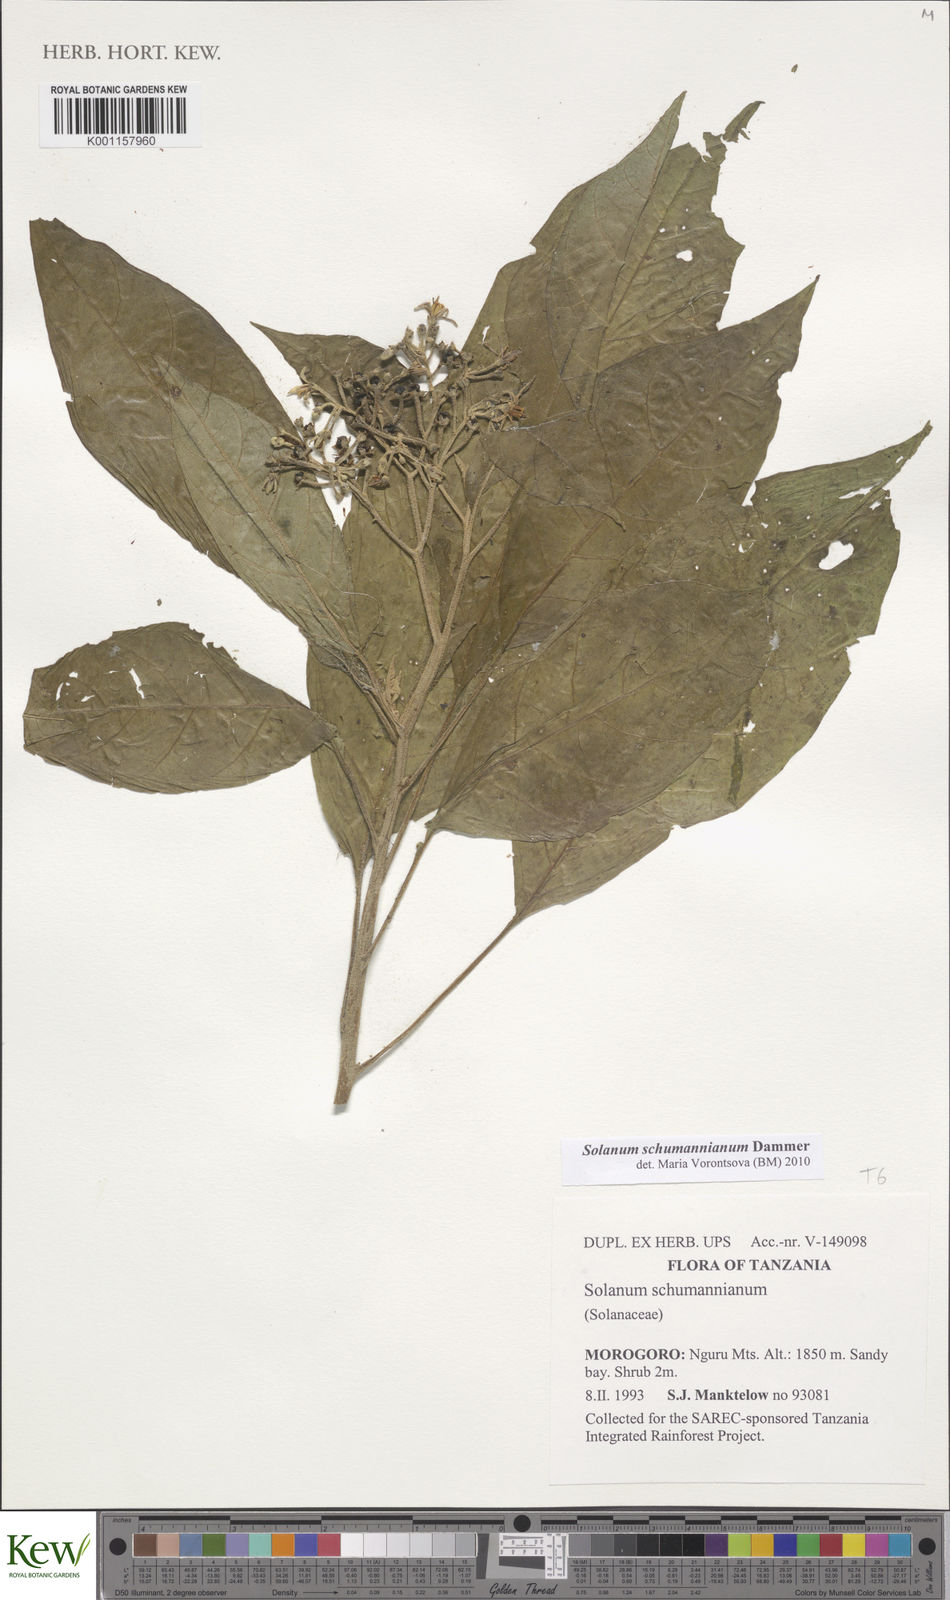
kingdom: Plantae
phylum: Tracheophyta
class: Magnoliopsida
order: Solanales
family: Solanaceae
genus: Solanum
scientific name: Solanum schumannianum
